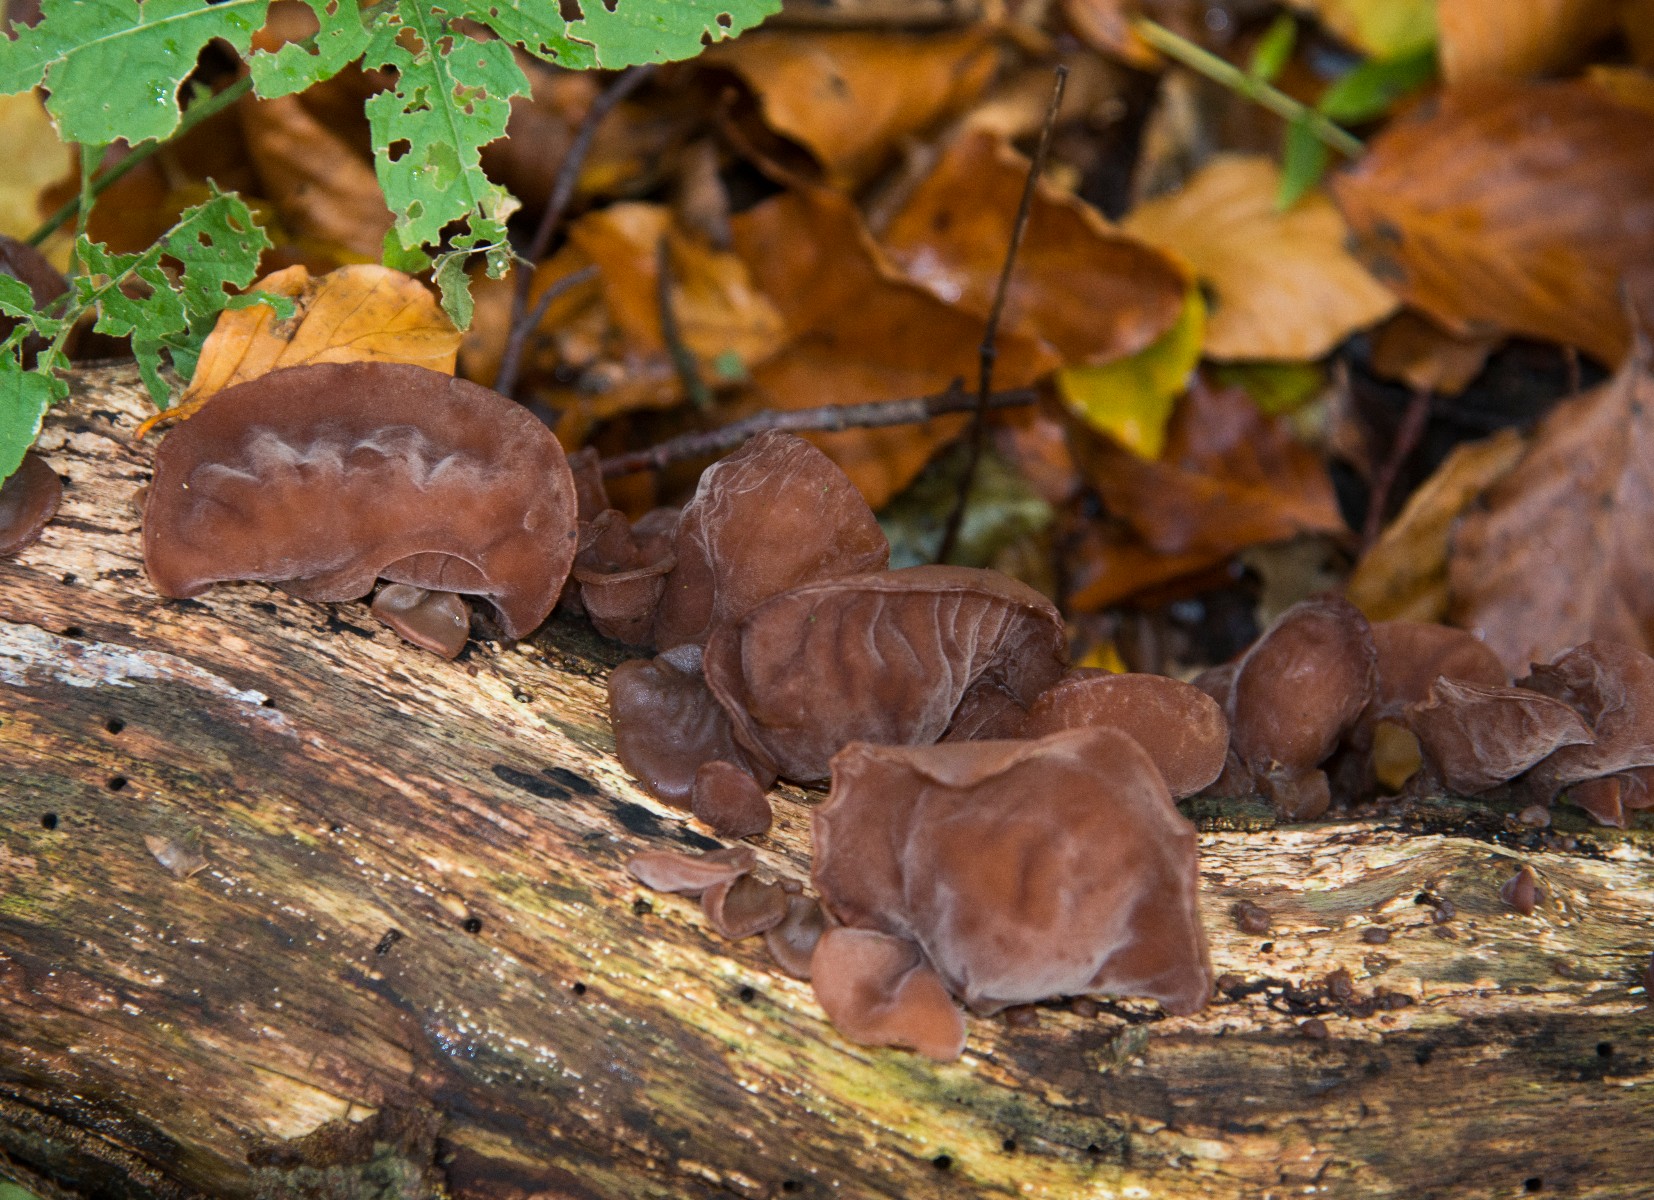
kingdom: Fungi
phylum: Basidiomycota
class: Agaricomycetes
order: Auriculariales
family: Auriculariaceae
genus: Auricularia
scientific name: Auricularia auricula-judae
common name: almindelig judasøre
